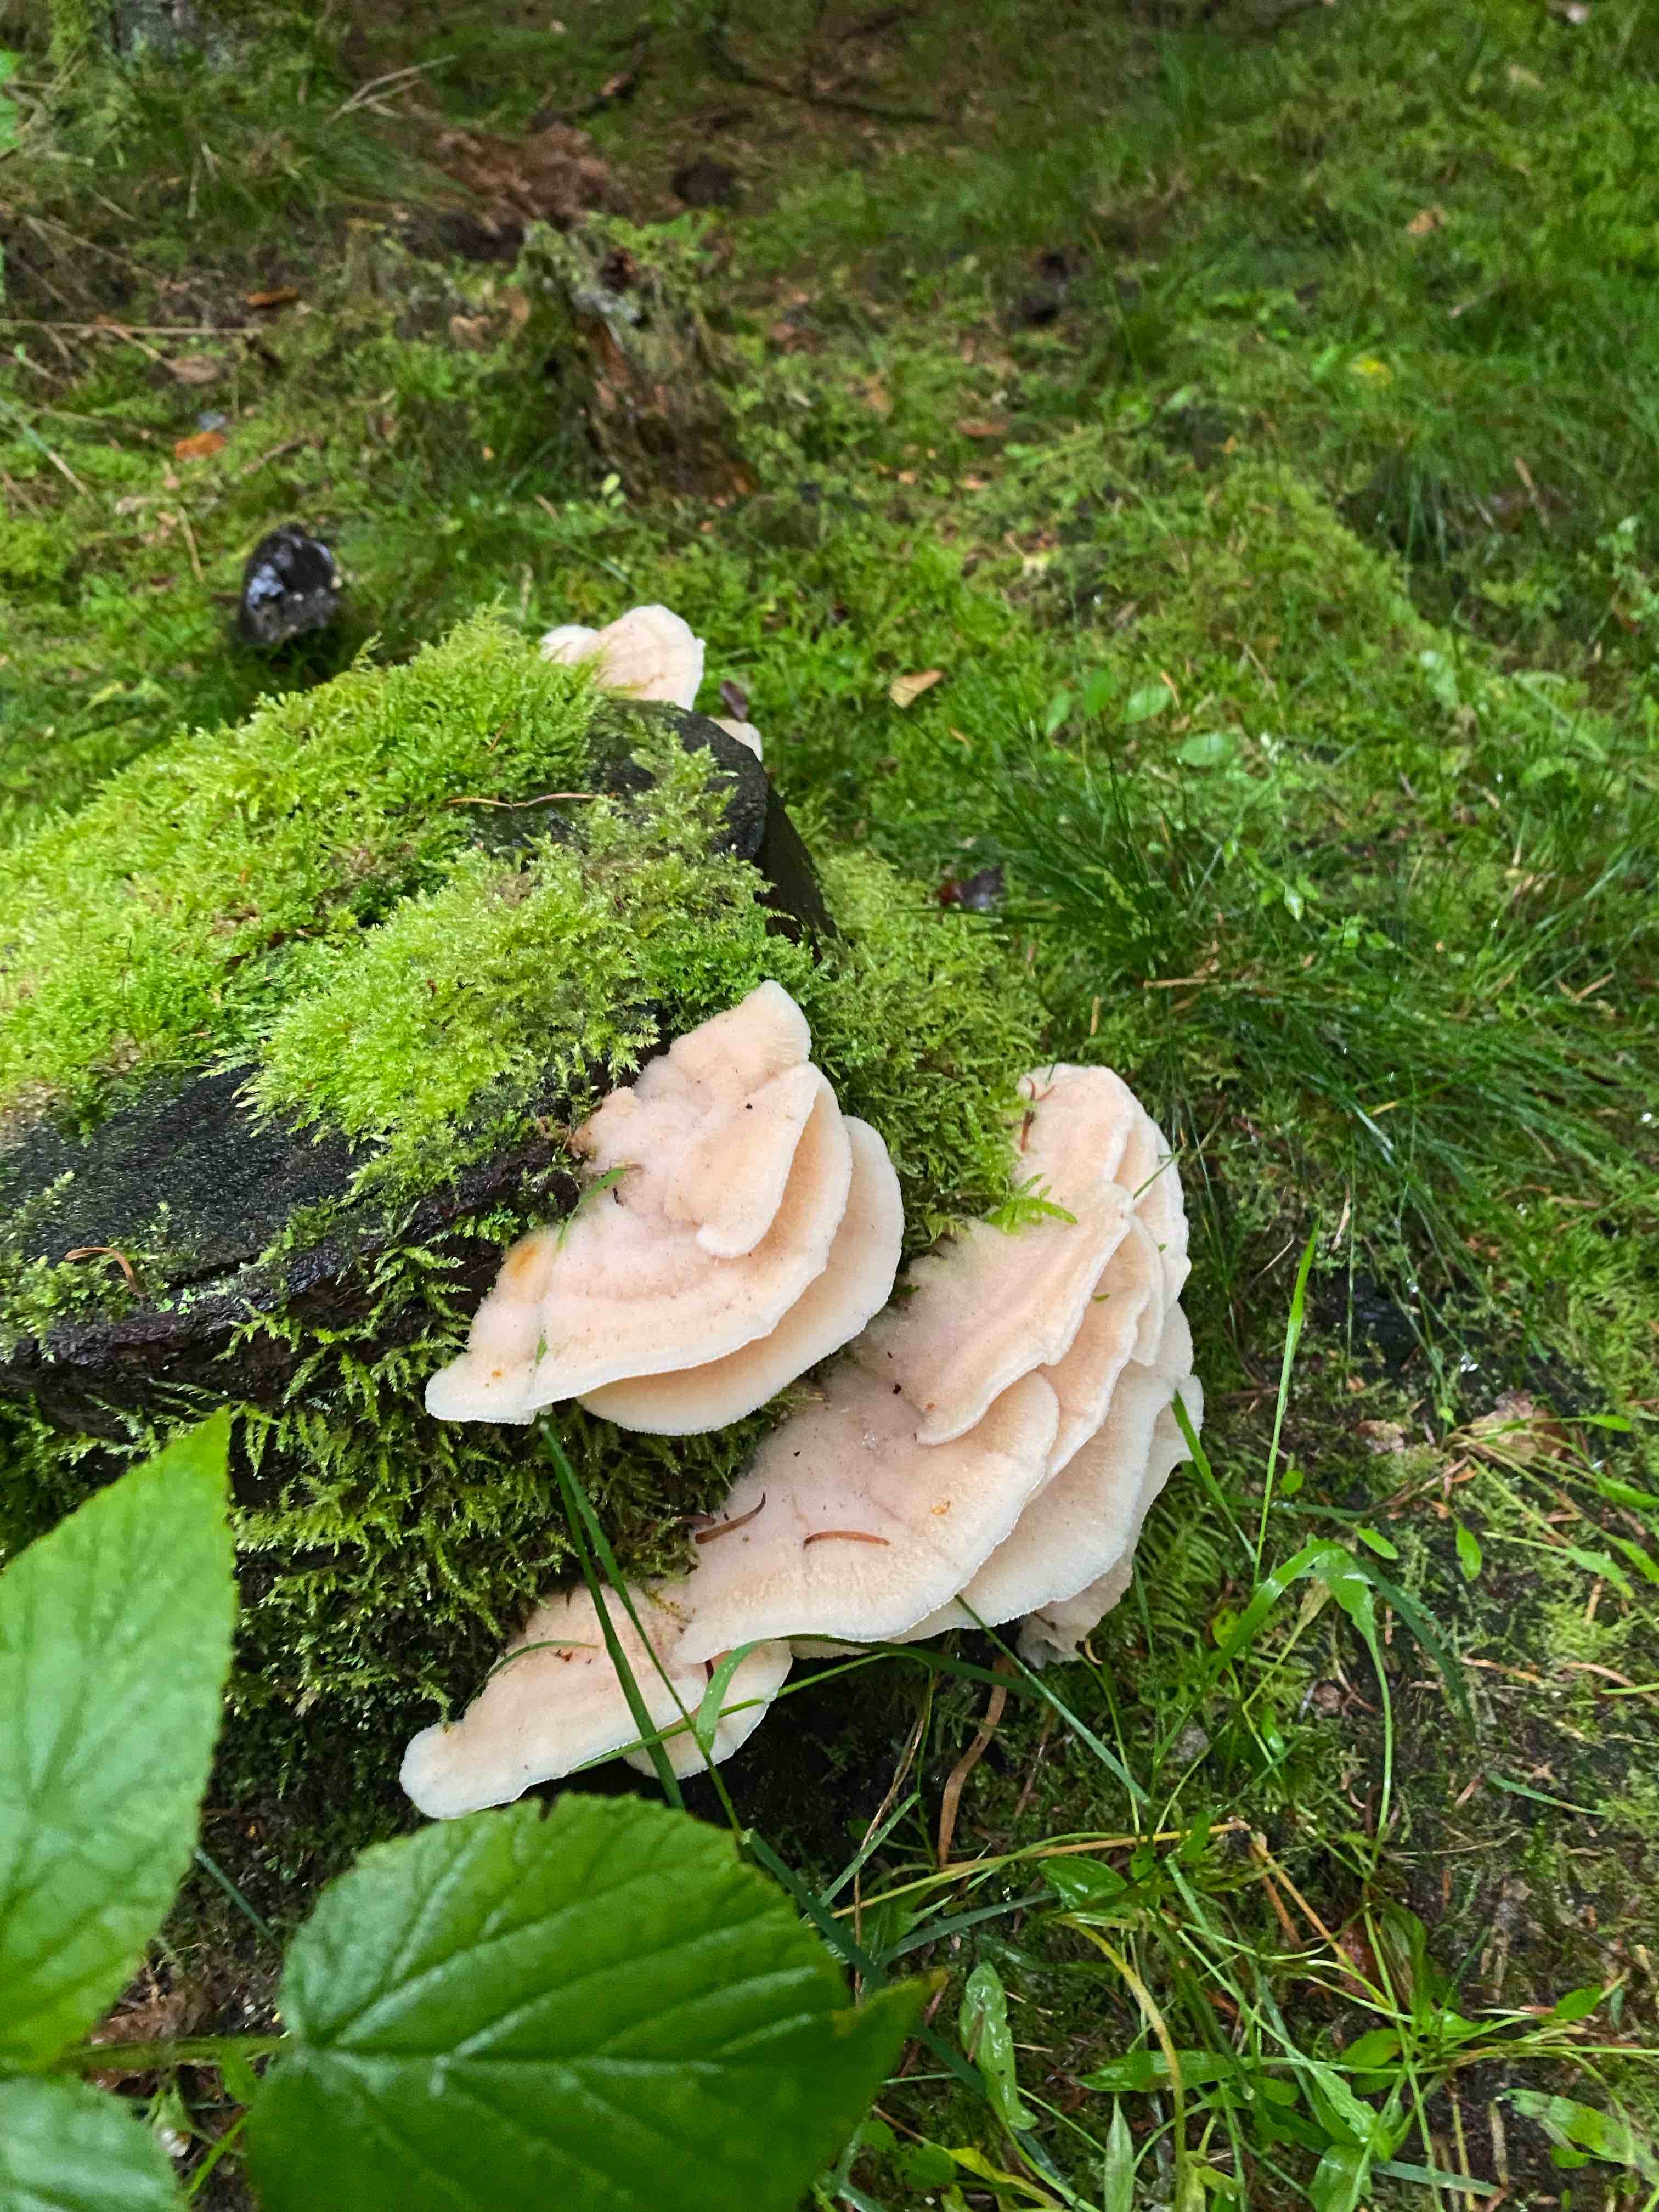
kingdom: Fungi
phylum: Basidiomycota
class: Agaricomycetes
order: Polyporales
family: Meruliaceae
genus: Phlebia
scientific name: Phlebia tremellosa
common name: bævrende åresvamp
